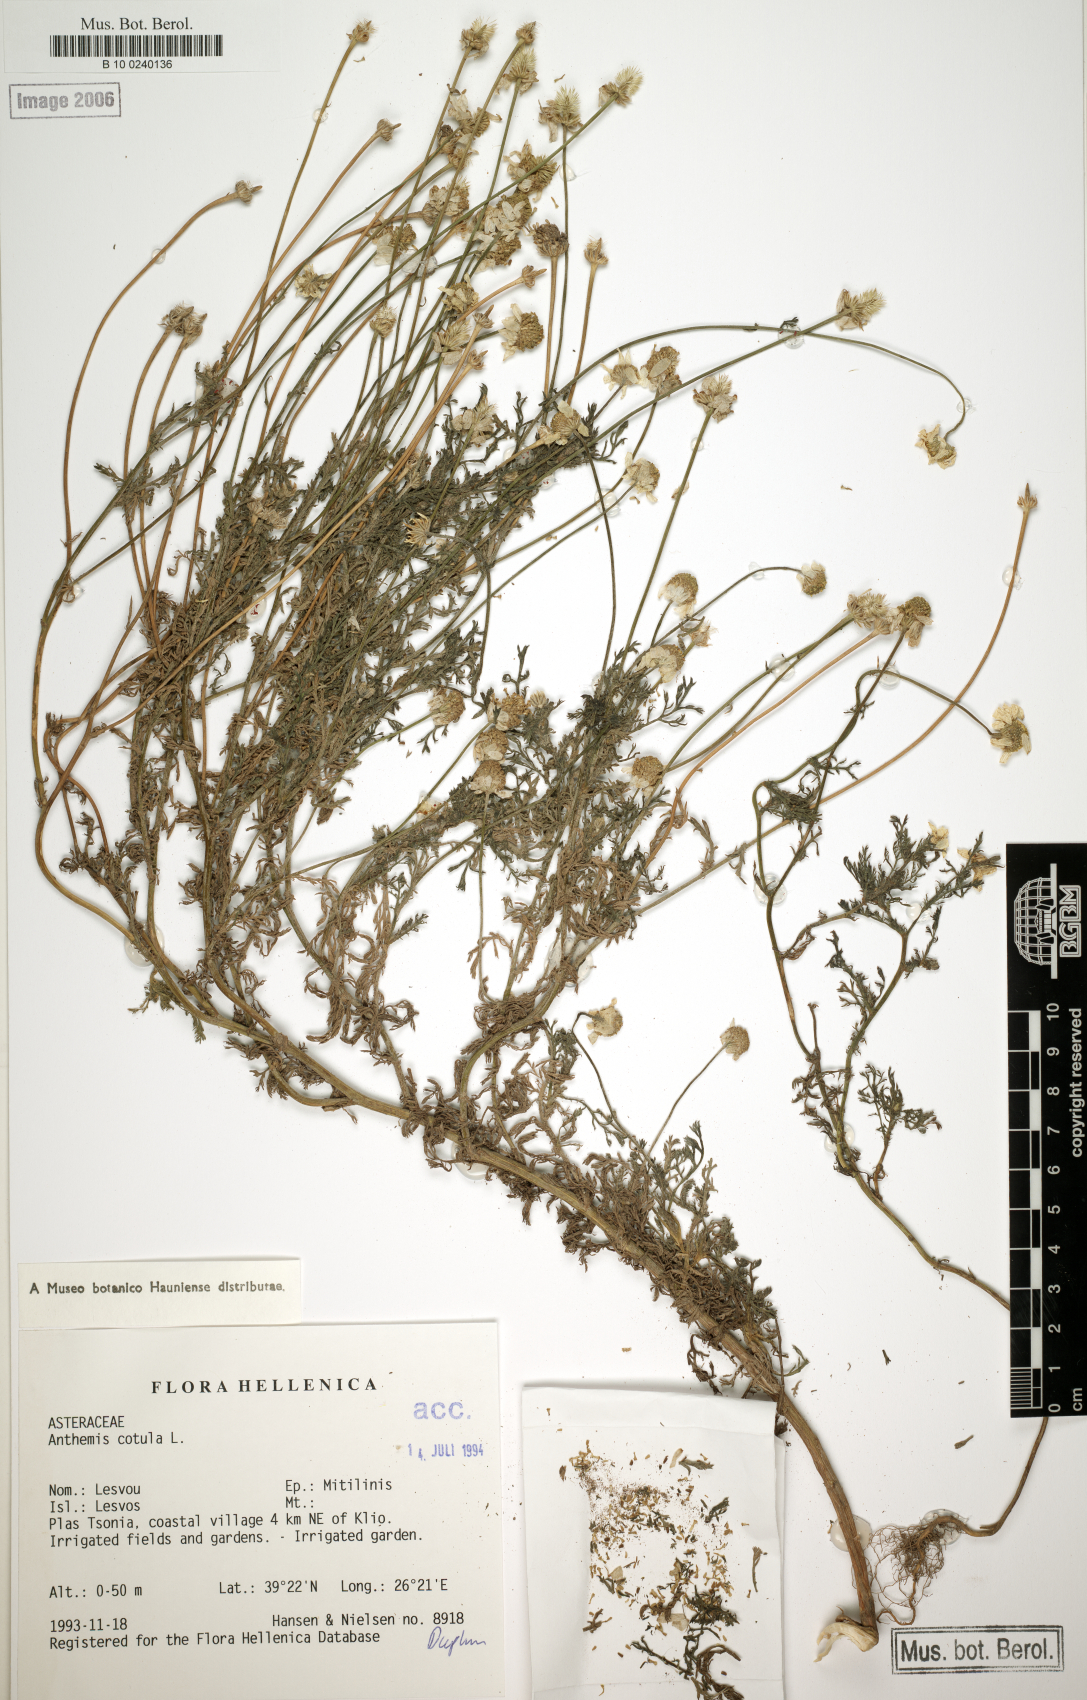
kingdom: Plantae
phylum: Tracheophyta
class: Magnoliopsida
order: Asterales
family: Asteraceae
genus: Anthemis
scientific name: Anthemis cotula
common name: Stinking chamomile
